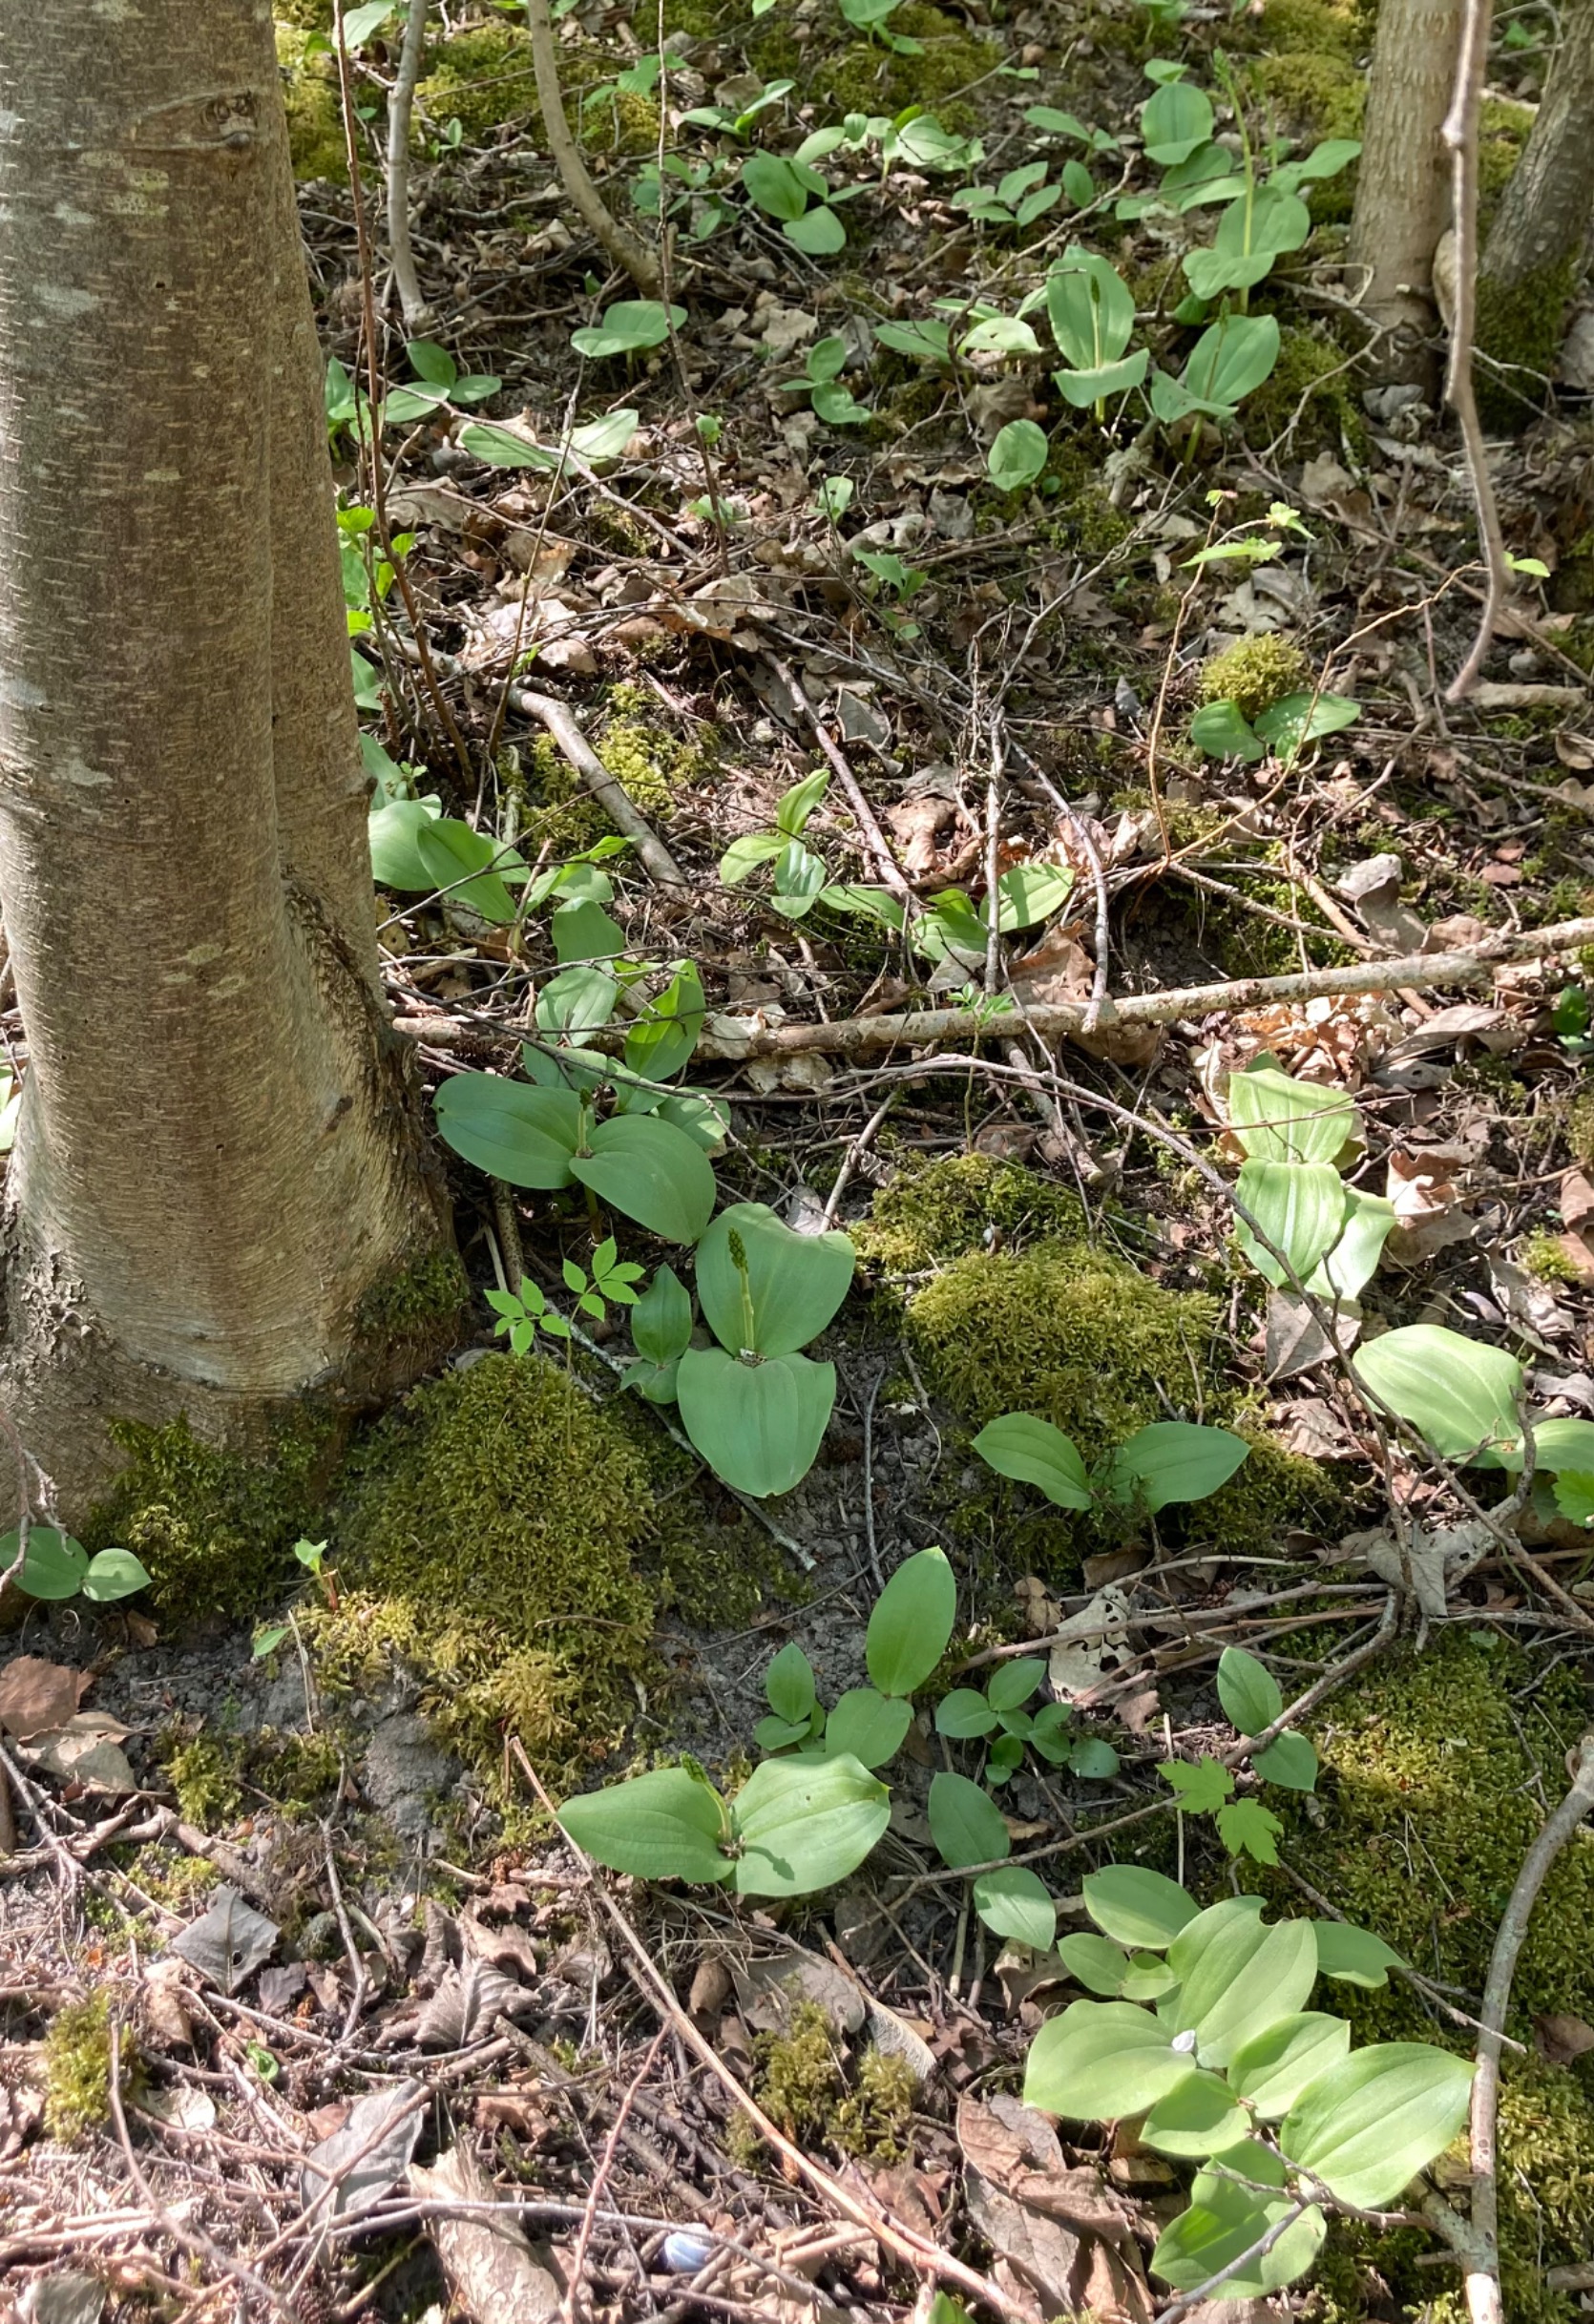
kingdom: Plantae
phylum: Tracheophyta
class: Liliopsida
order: Asparagales
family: Orchidaceae
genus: Neottia
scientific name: Neottia ovata
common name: Ægbladet fliglæbe
